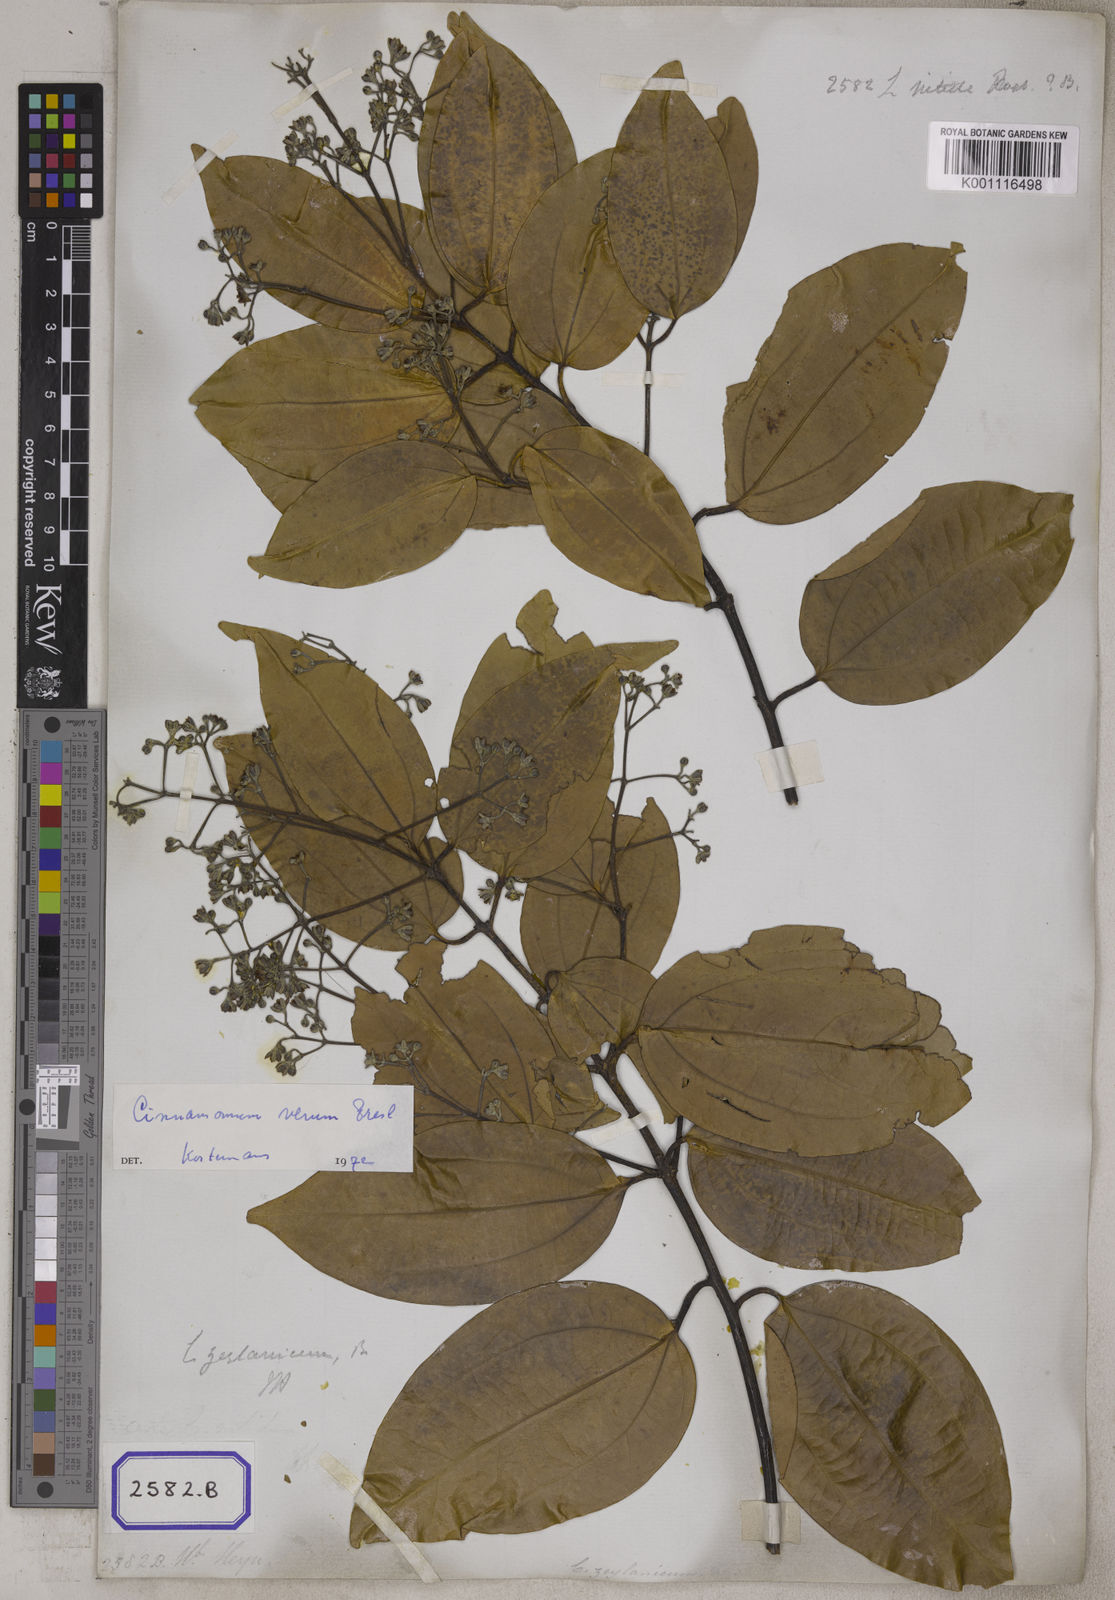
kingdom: Plantae
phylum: Tracheophyta
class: Magnoliopsida
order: Laurales
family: Lauraceae
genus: Cinnamomum
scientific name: Cinnamomum burmanni
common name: Padang cassia
